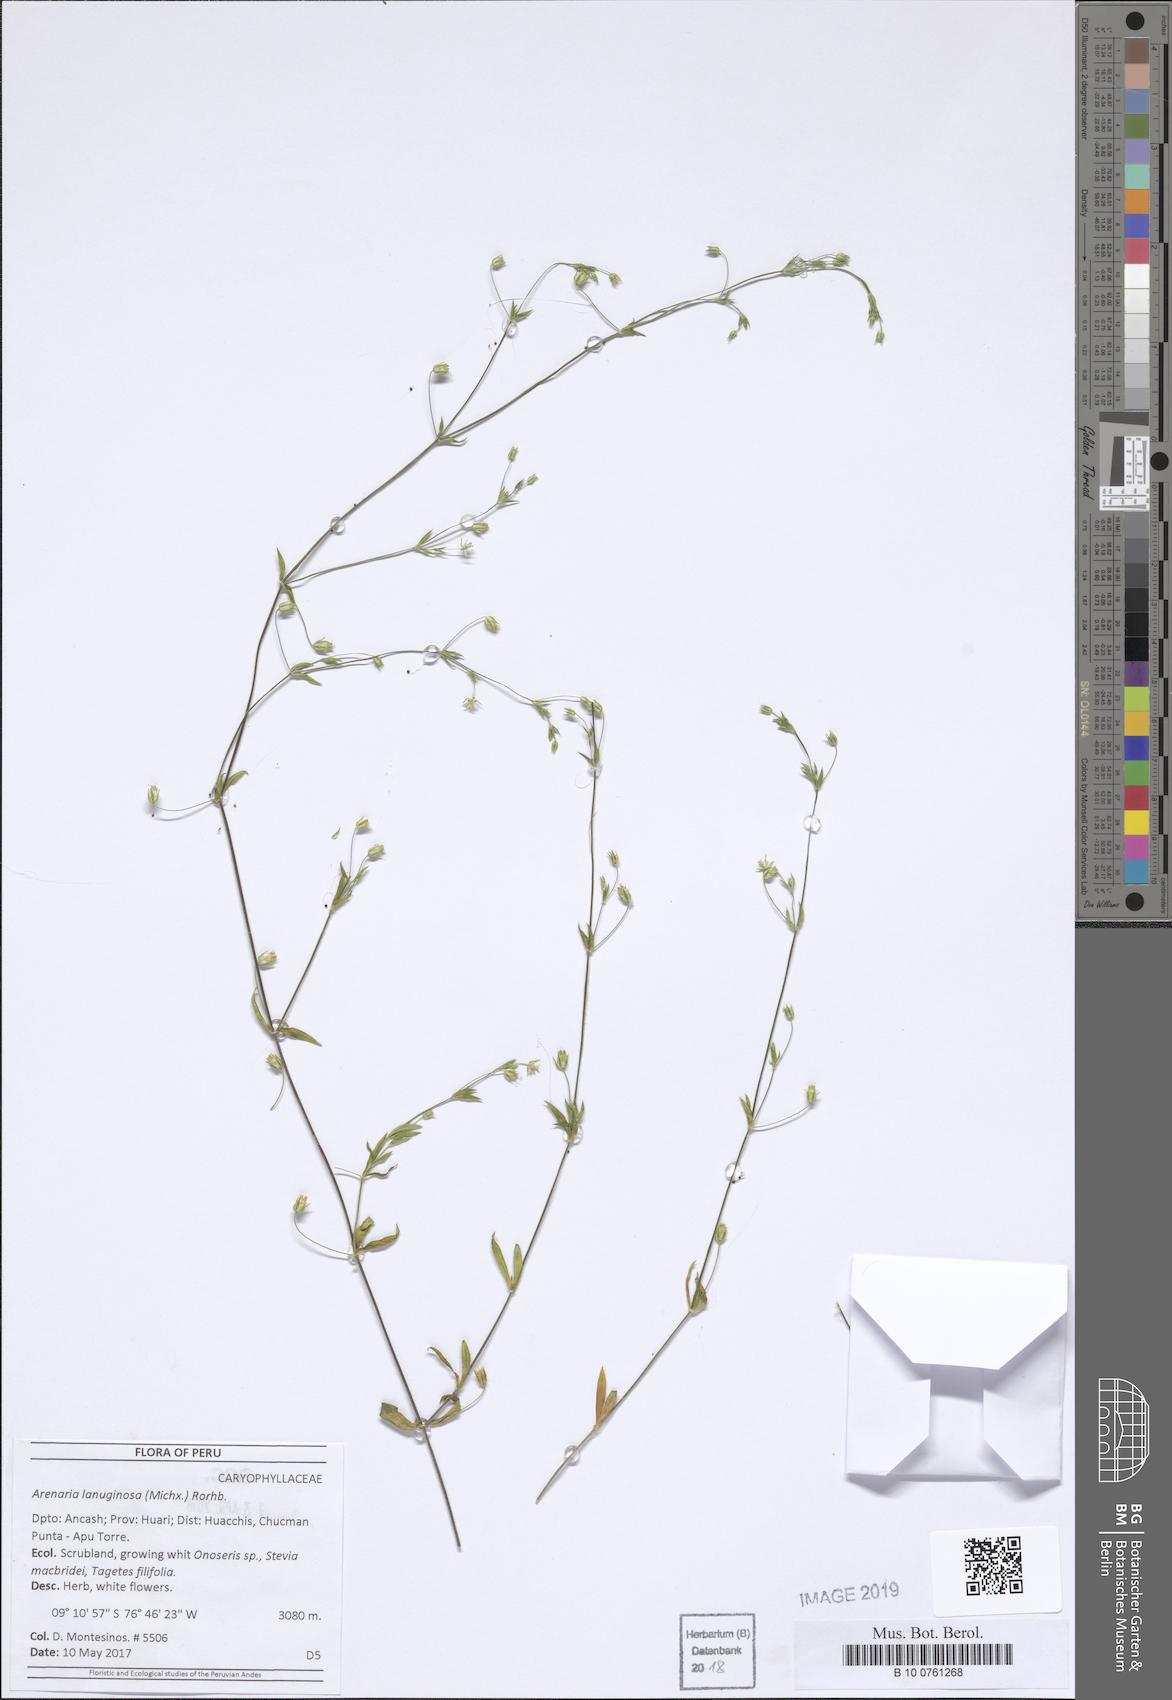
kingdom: Plantae
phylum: Tracheophyta
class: Magnoliopsida
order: Caryophyllales
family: Caryophyllaceae
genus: Arenaria
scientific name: Arenaria lanuginosa
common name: Spread sandwort
